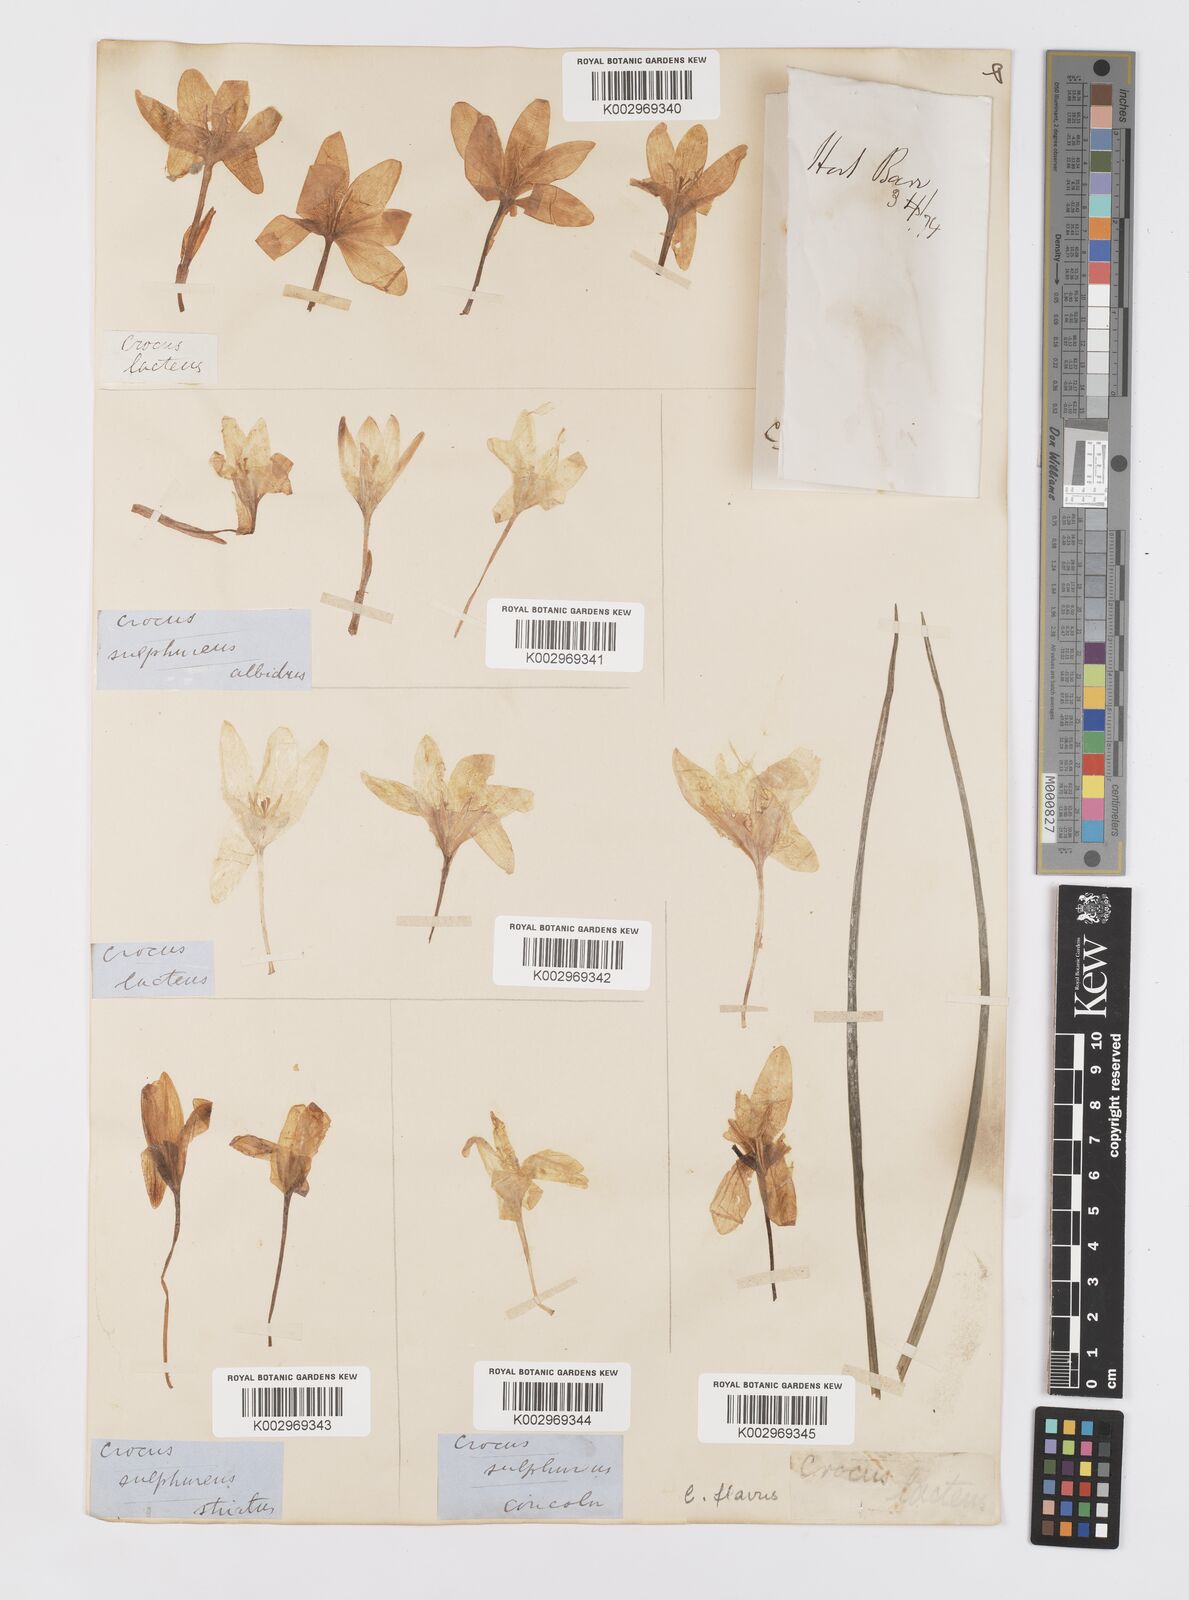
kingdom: Plantae
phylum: Tracheophyta
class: Liliopsida
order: Asparagales
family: Iridaceae
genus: Crocus
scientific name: Crocus flavus
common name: Yellow crocus
